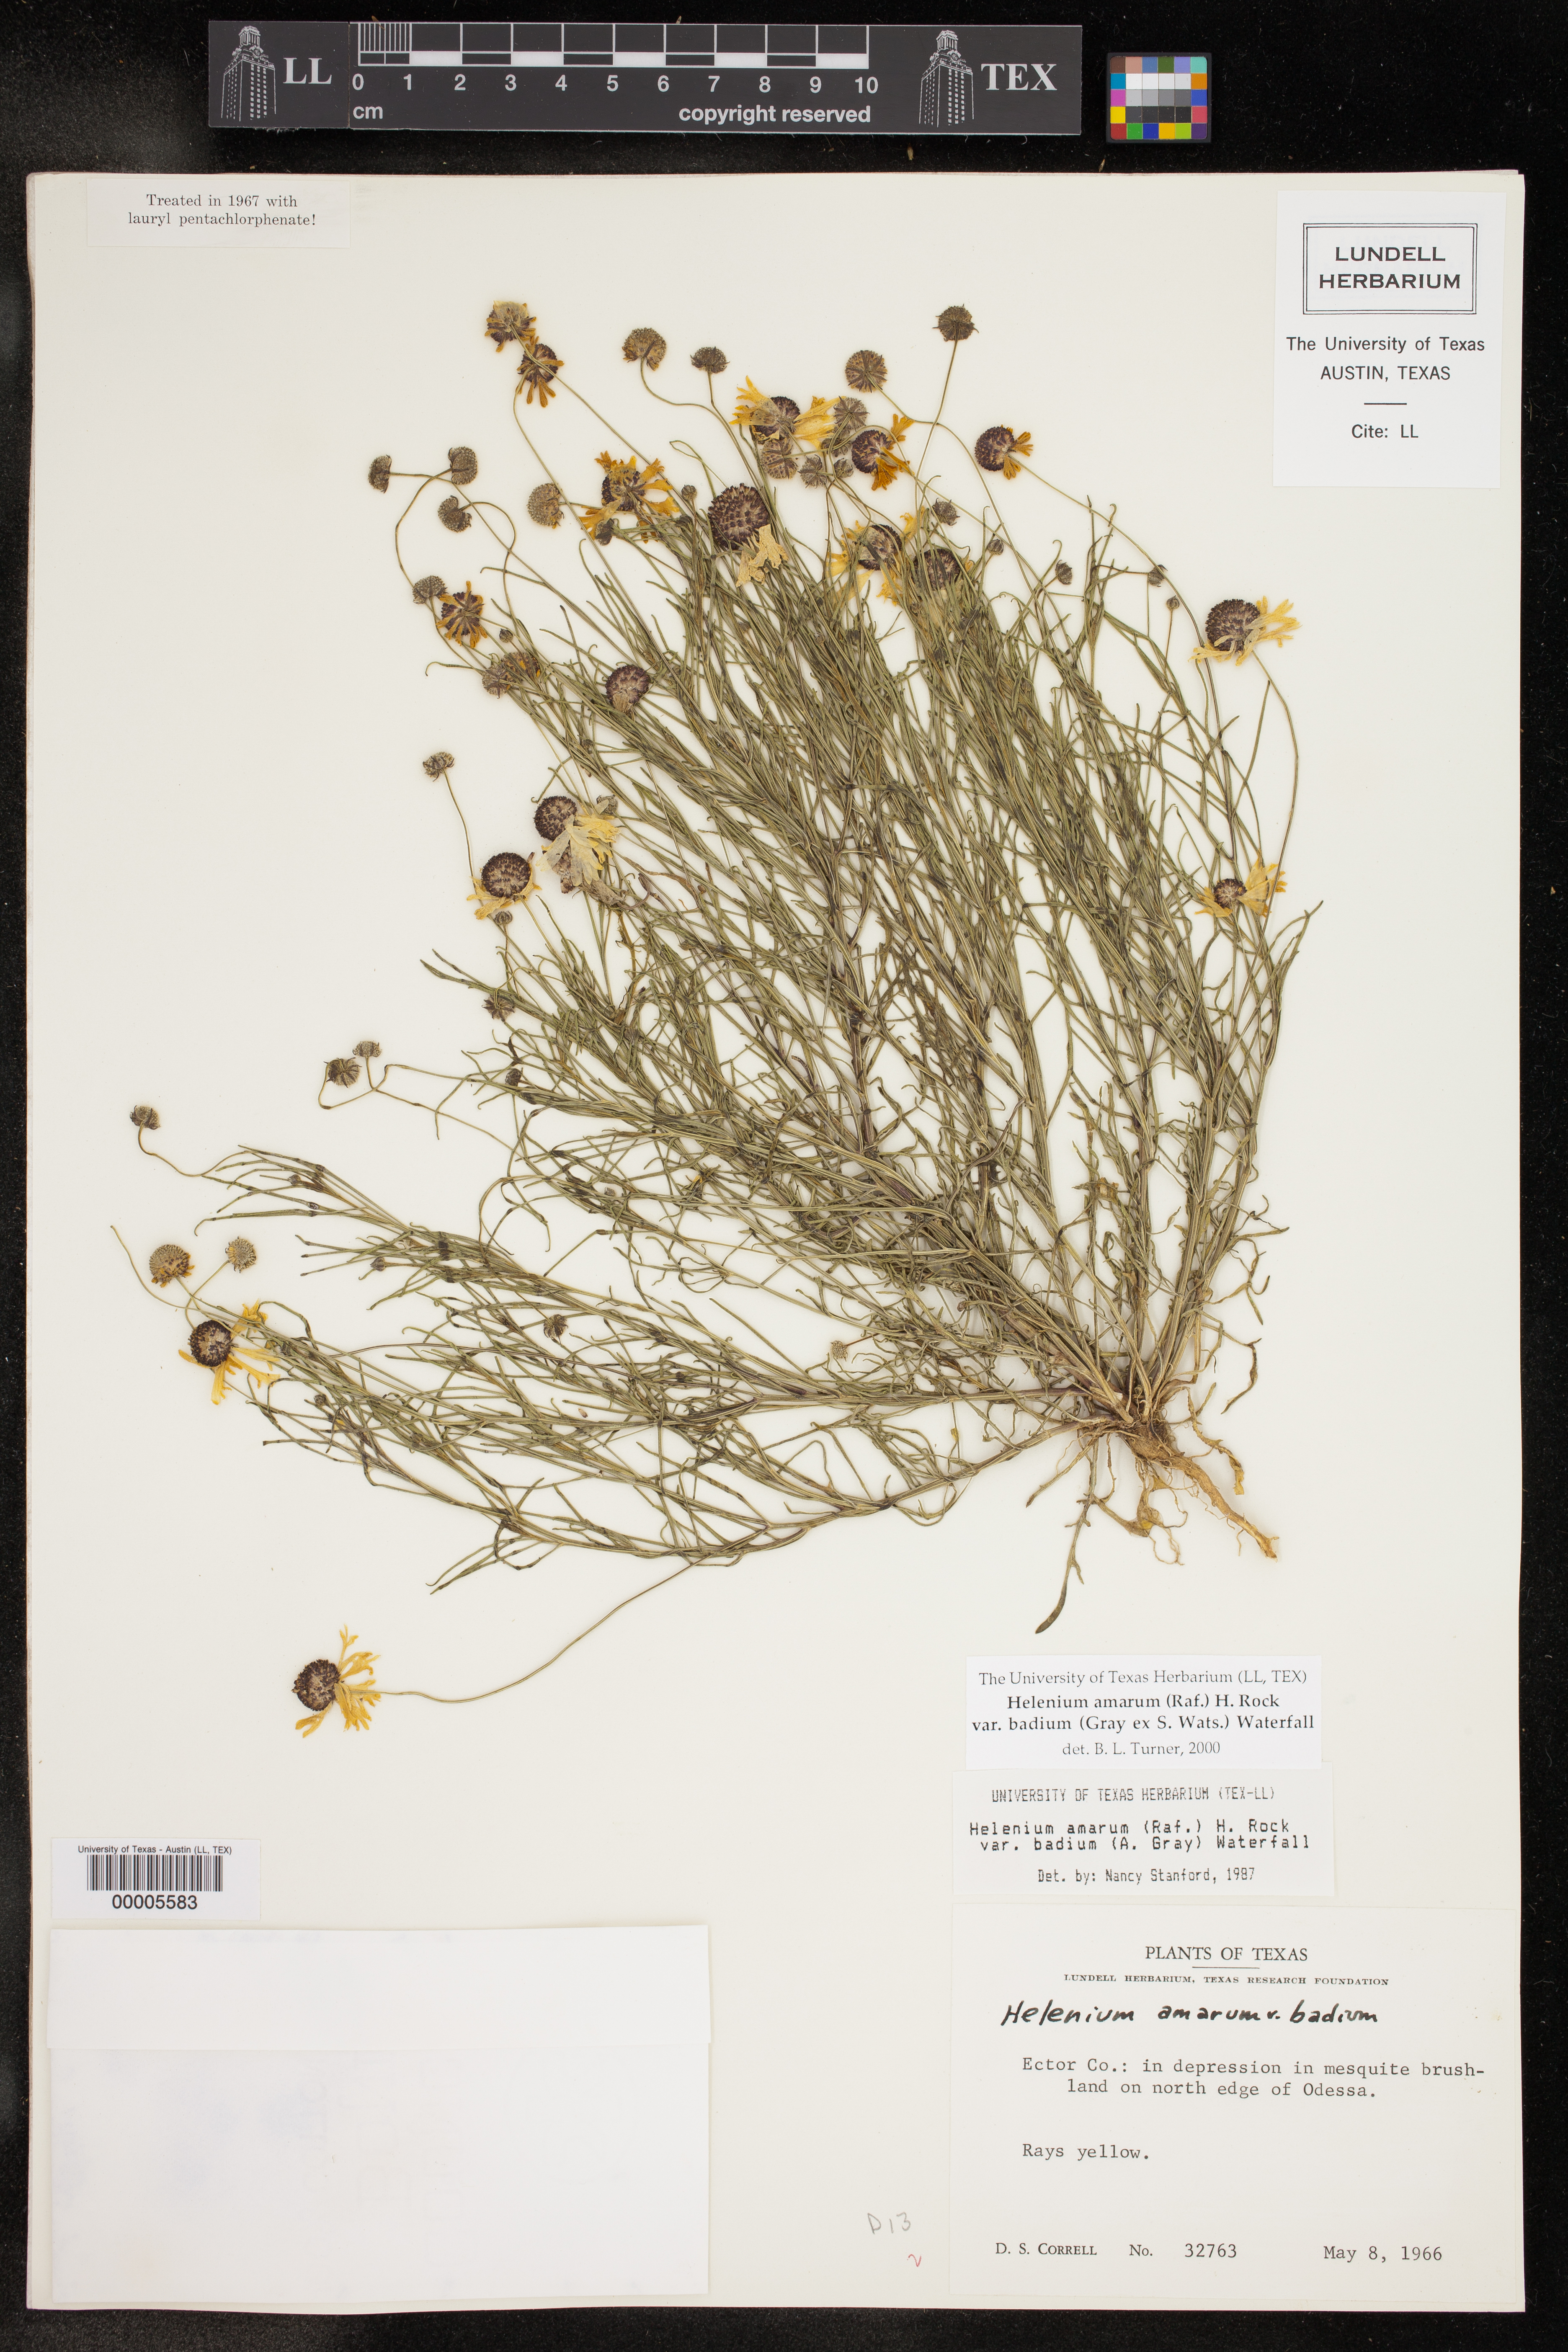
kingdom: Plantae
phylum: Tracheophyta
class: Magnoliopsida
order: Asterales
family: Asteraceae
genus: Helenium
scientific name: Helenium amarum
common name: Bitter sneezeweed
